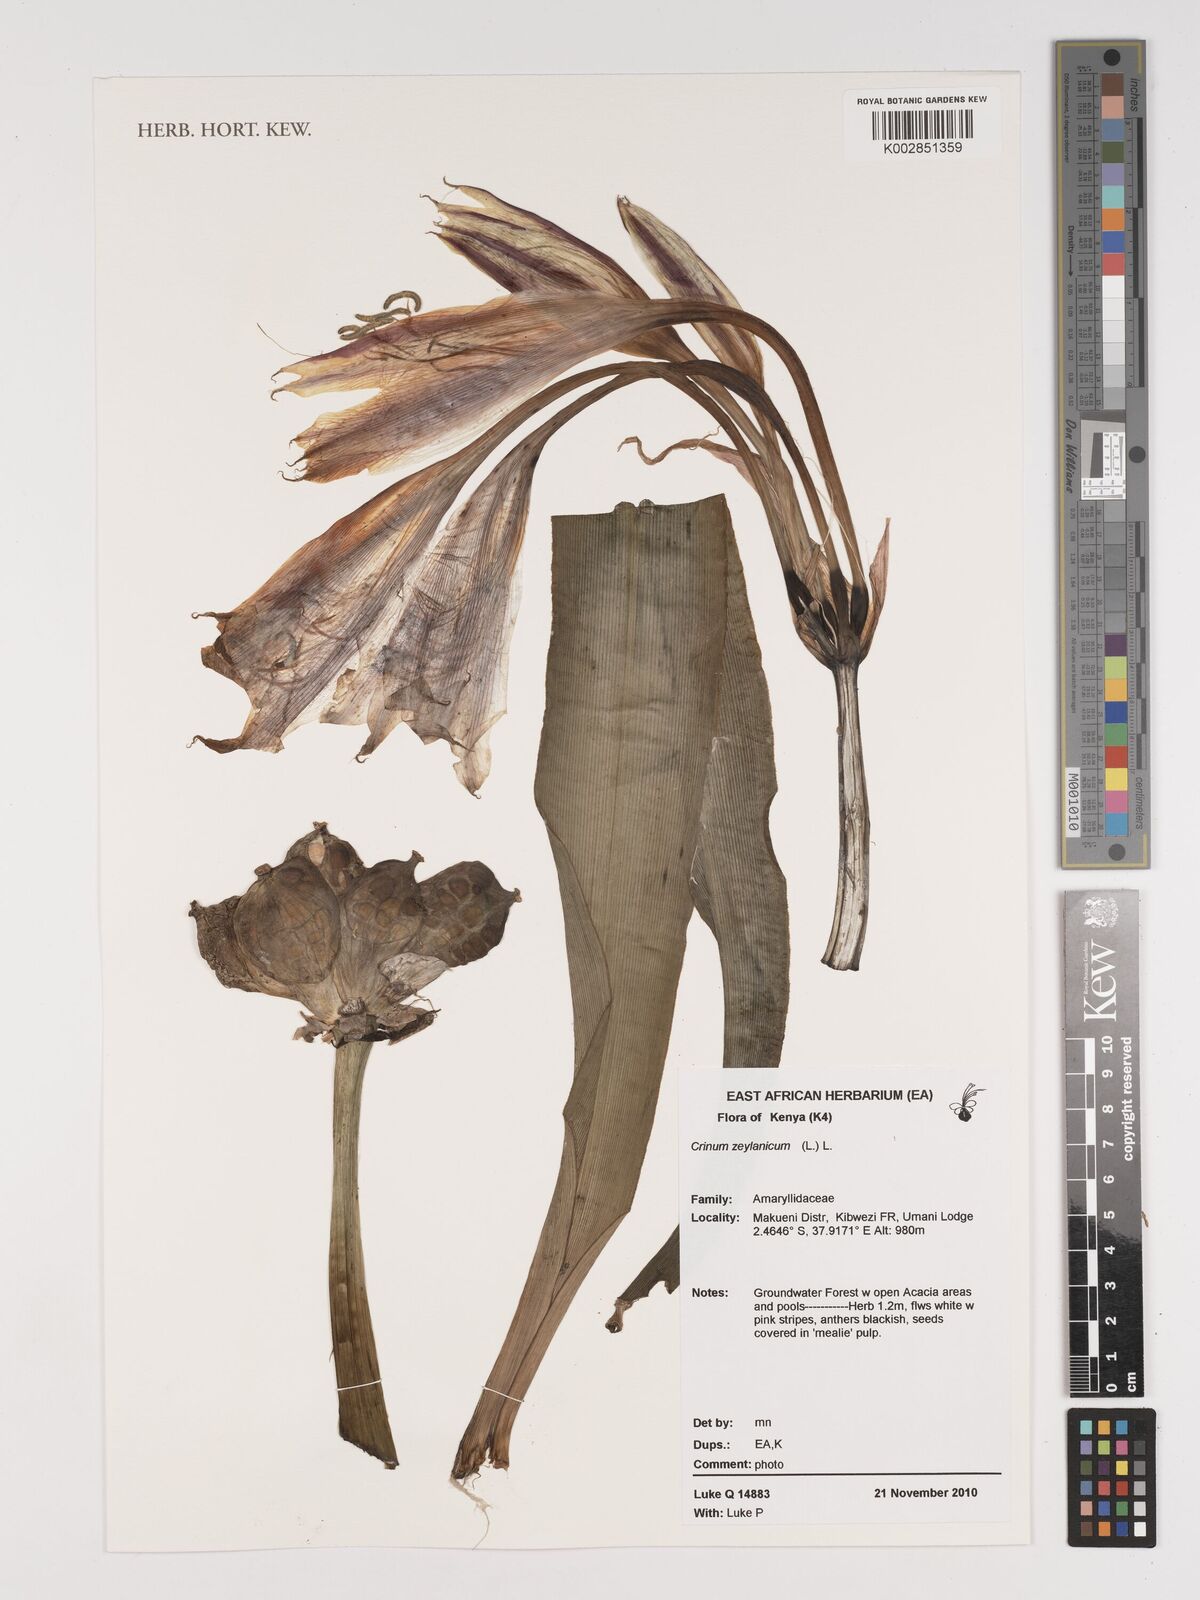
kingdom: Plantae
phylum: Tracheophyta
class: Liliopsida
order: Asparagales
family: Amaryllidaceae
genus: Crinum
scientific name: Crinum zeylanicum
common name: Ceylon swamplily
